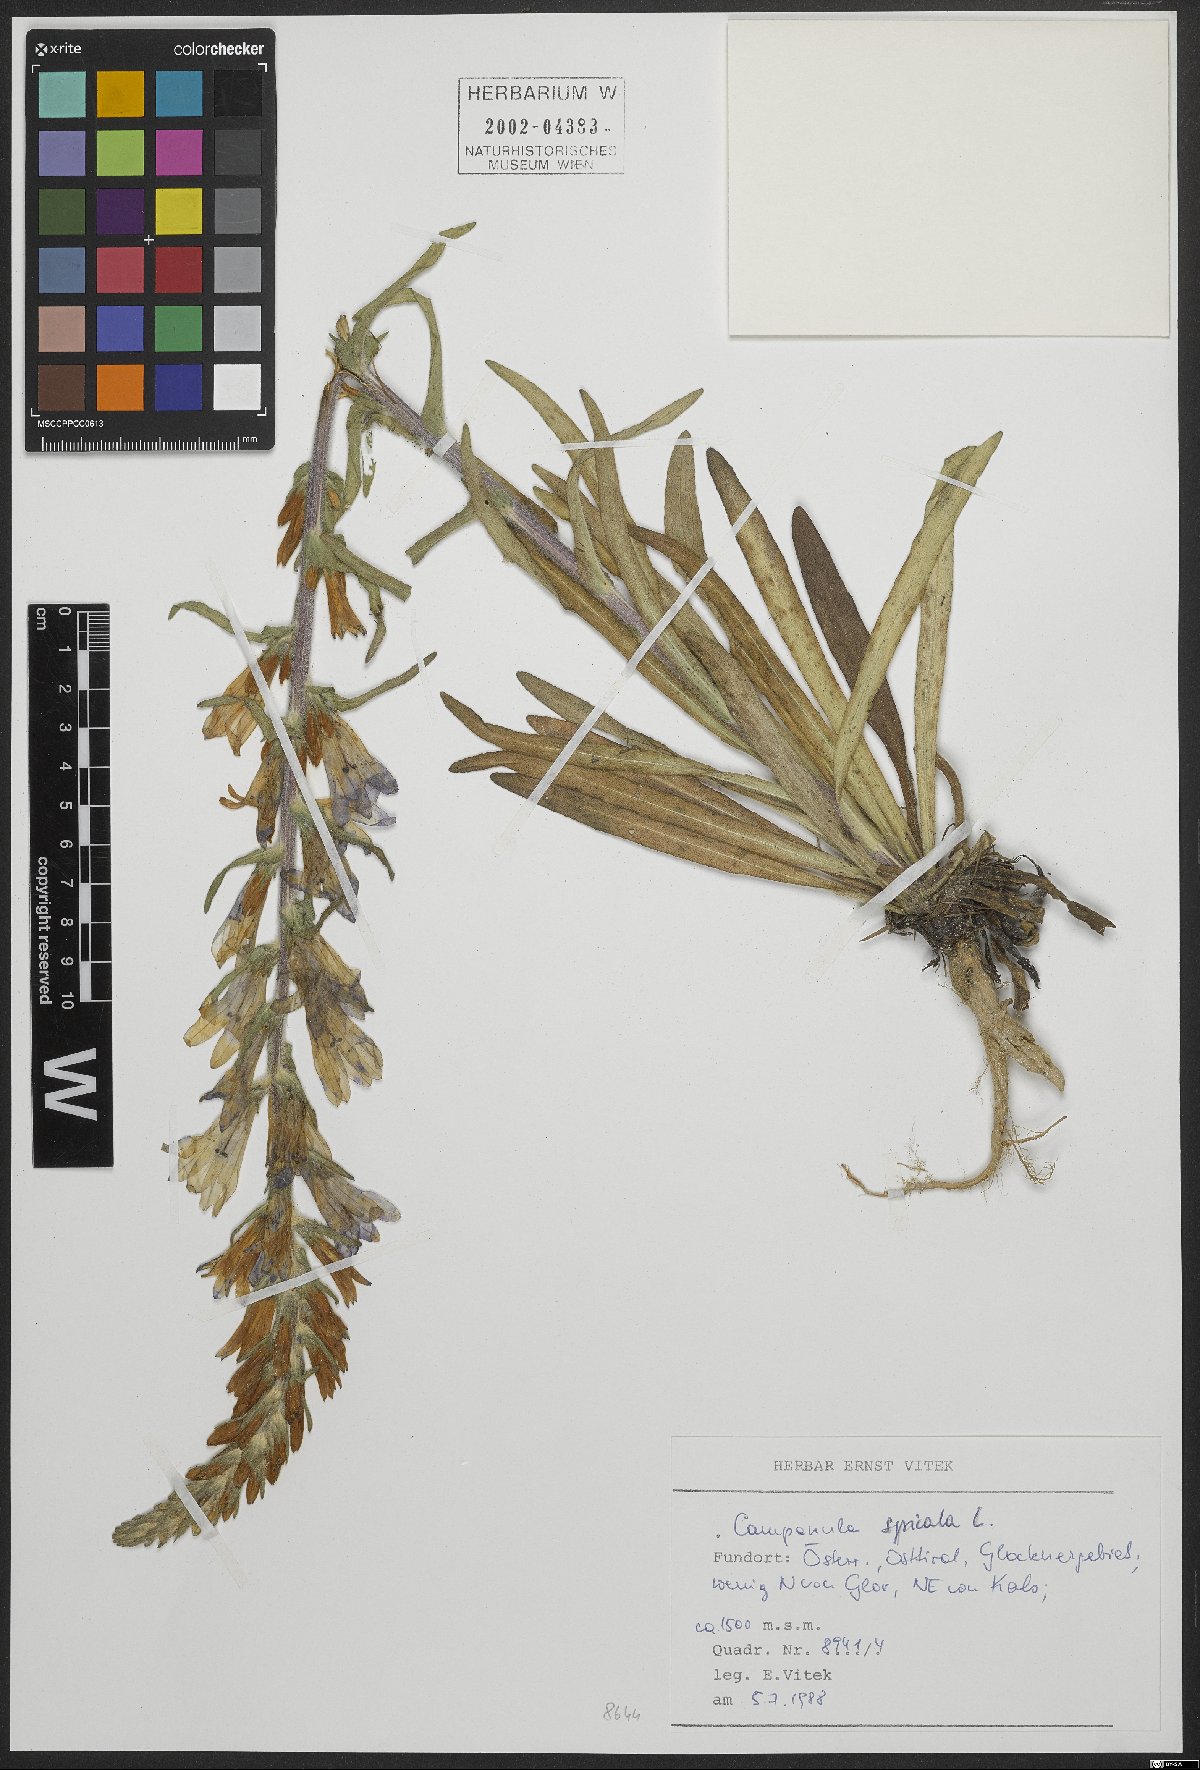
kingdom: Plantae
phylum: Tracheophyta
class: Magnoliopsida
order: Asterales
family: Campanulaceae
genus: Campanula
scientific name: Campanula spicata
